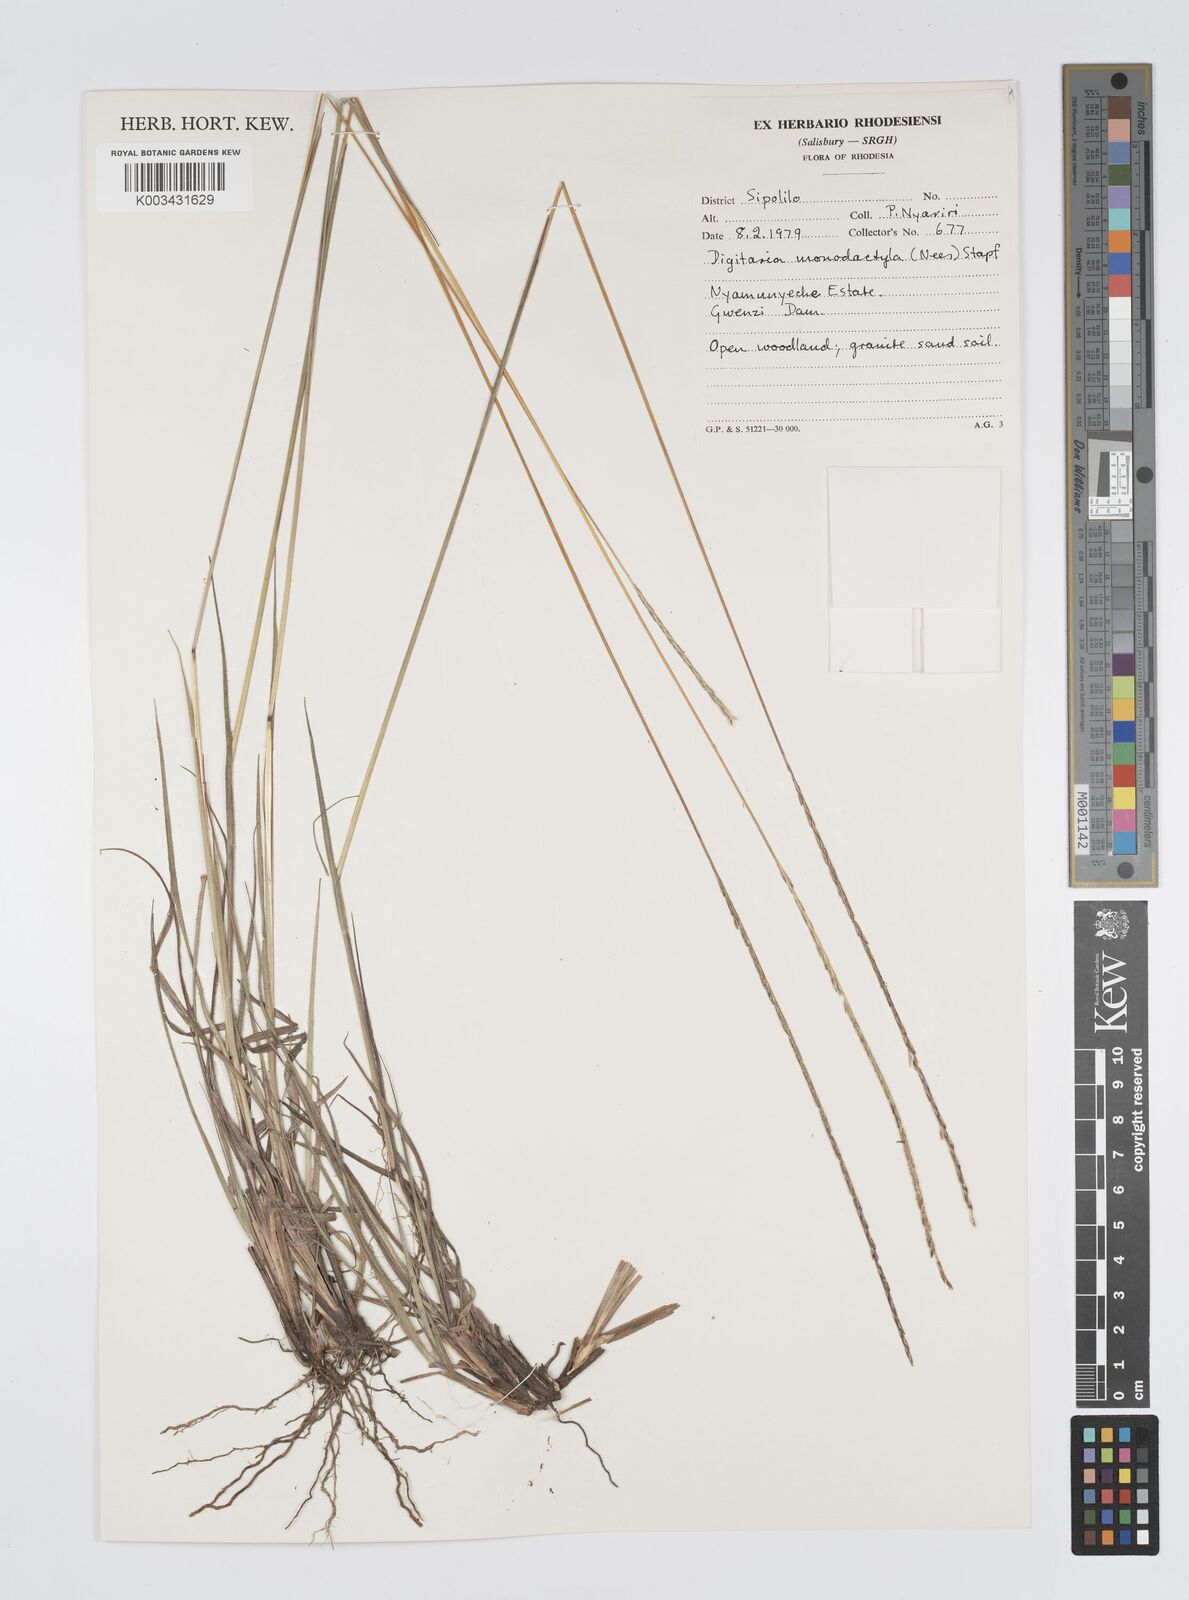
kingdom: Plantae
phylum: Tracheophyta
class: Liliopsida
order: Poales
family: Poaceae
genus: Digitaria
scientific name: Digitaria monodactyla
